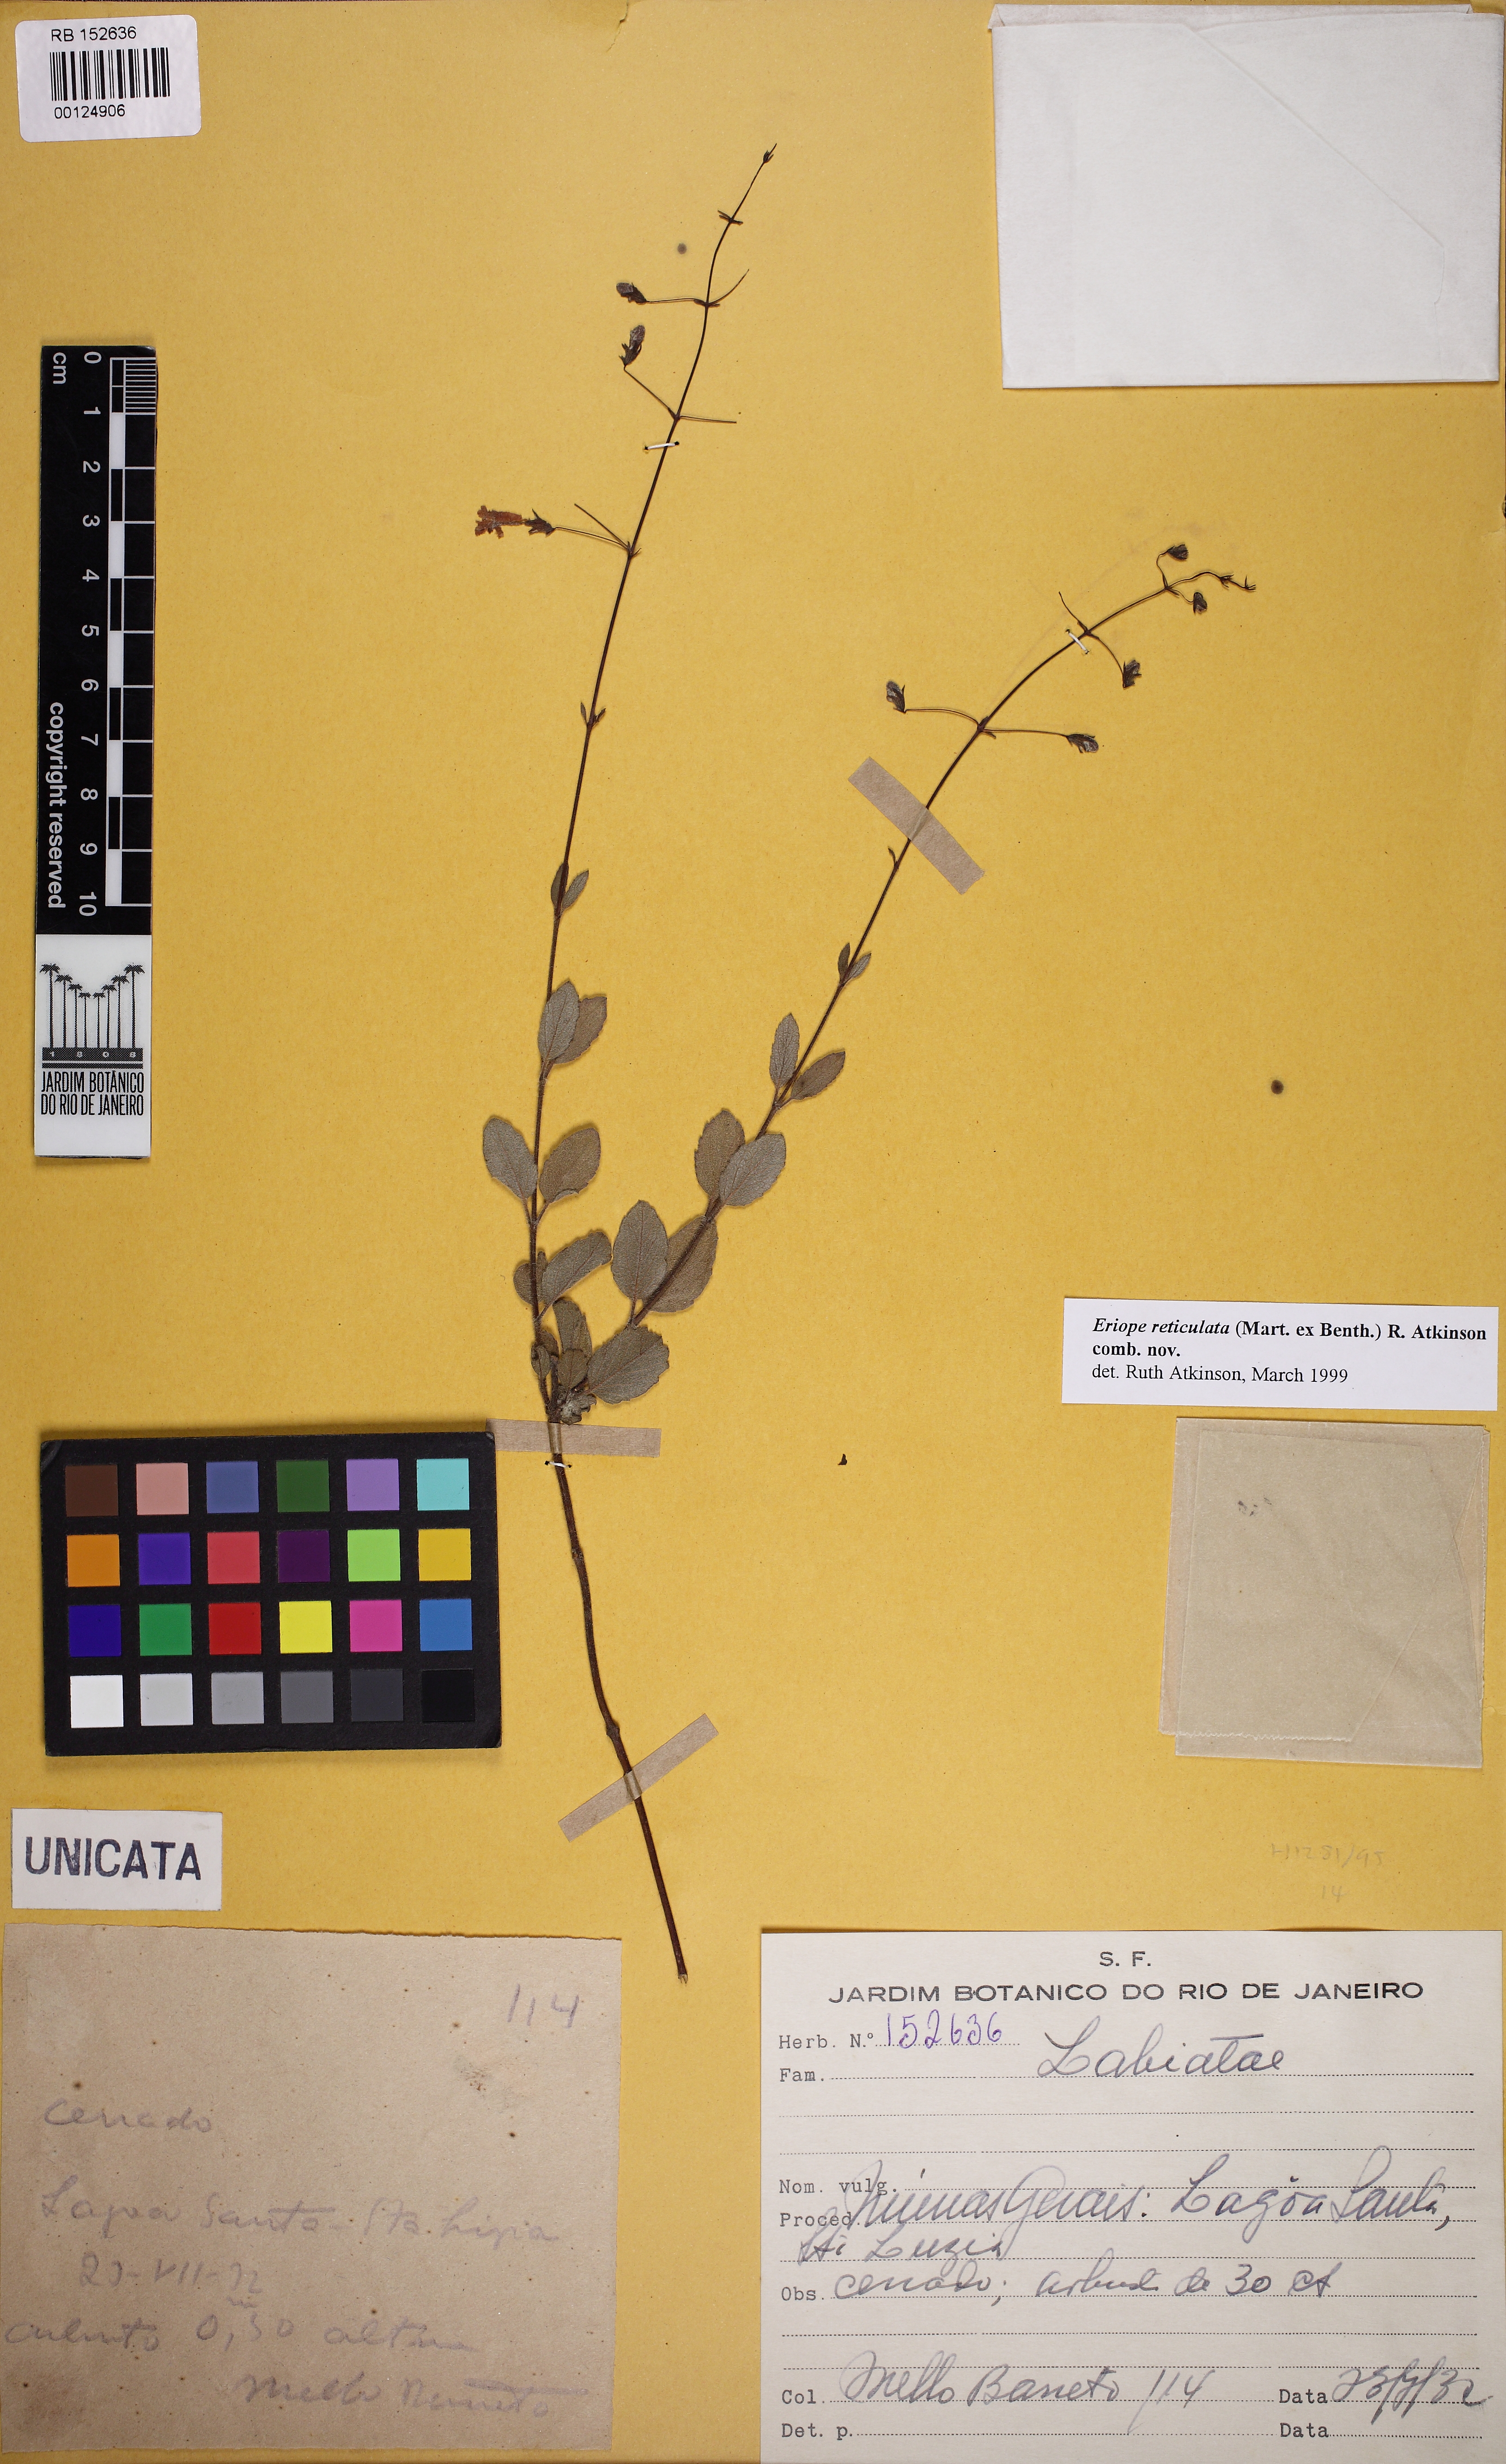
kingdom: Plantae
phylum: Tracheophyta
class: Magnoliopsida
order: Lamiales
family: Lamiaceae
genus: Eriope
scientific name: Eriope
